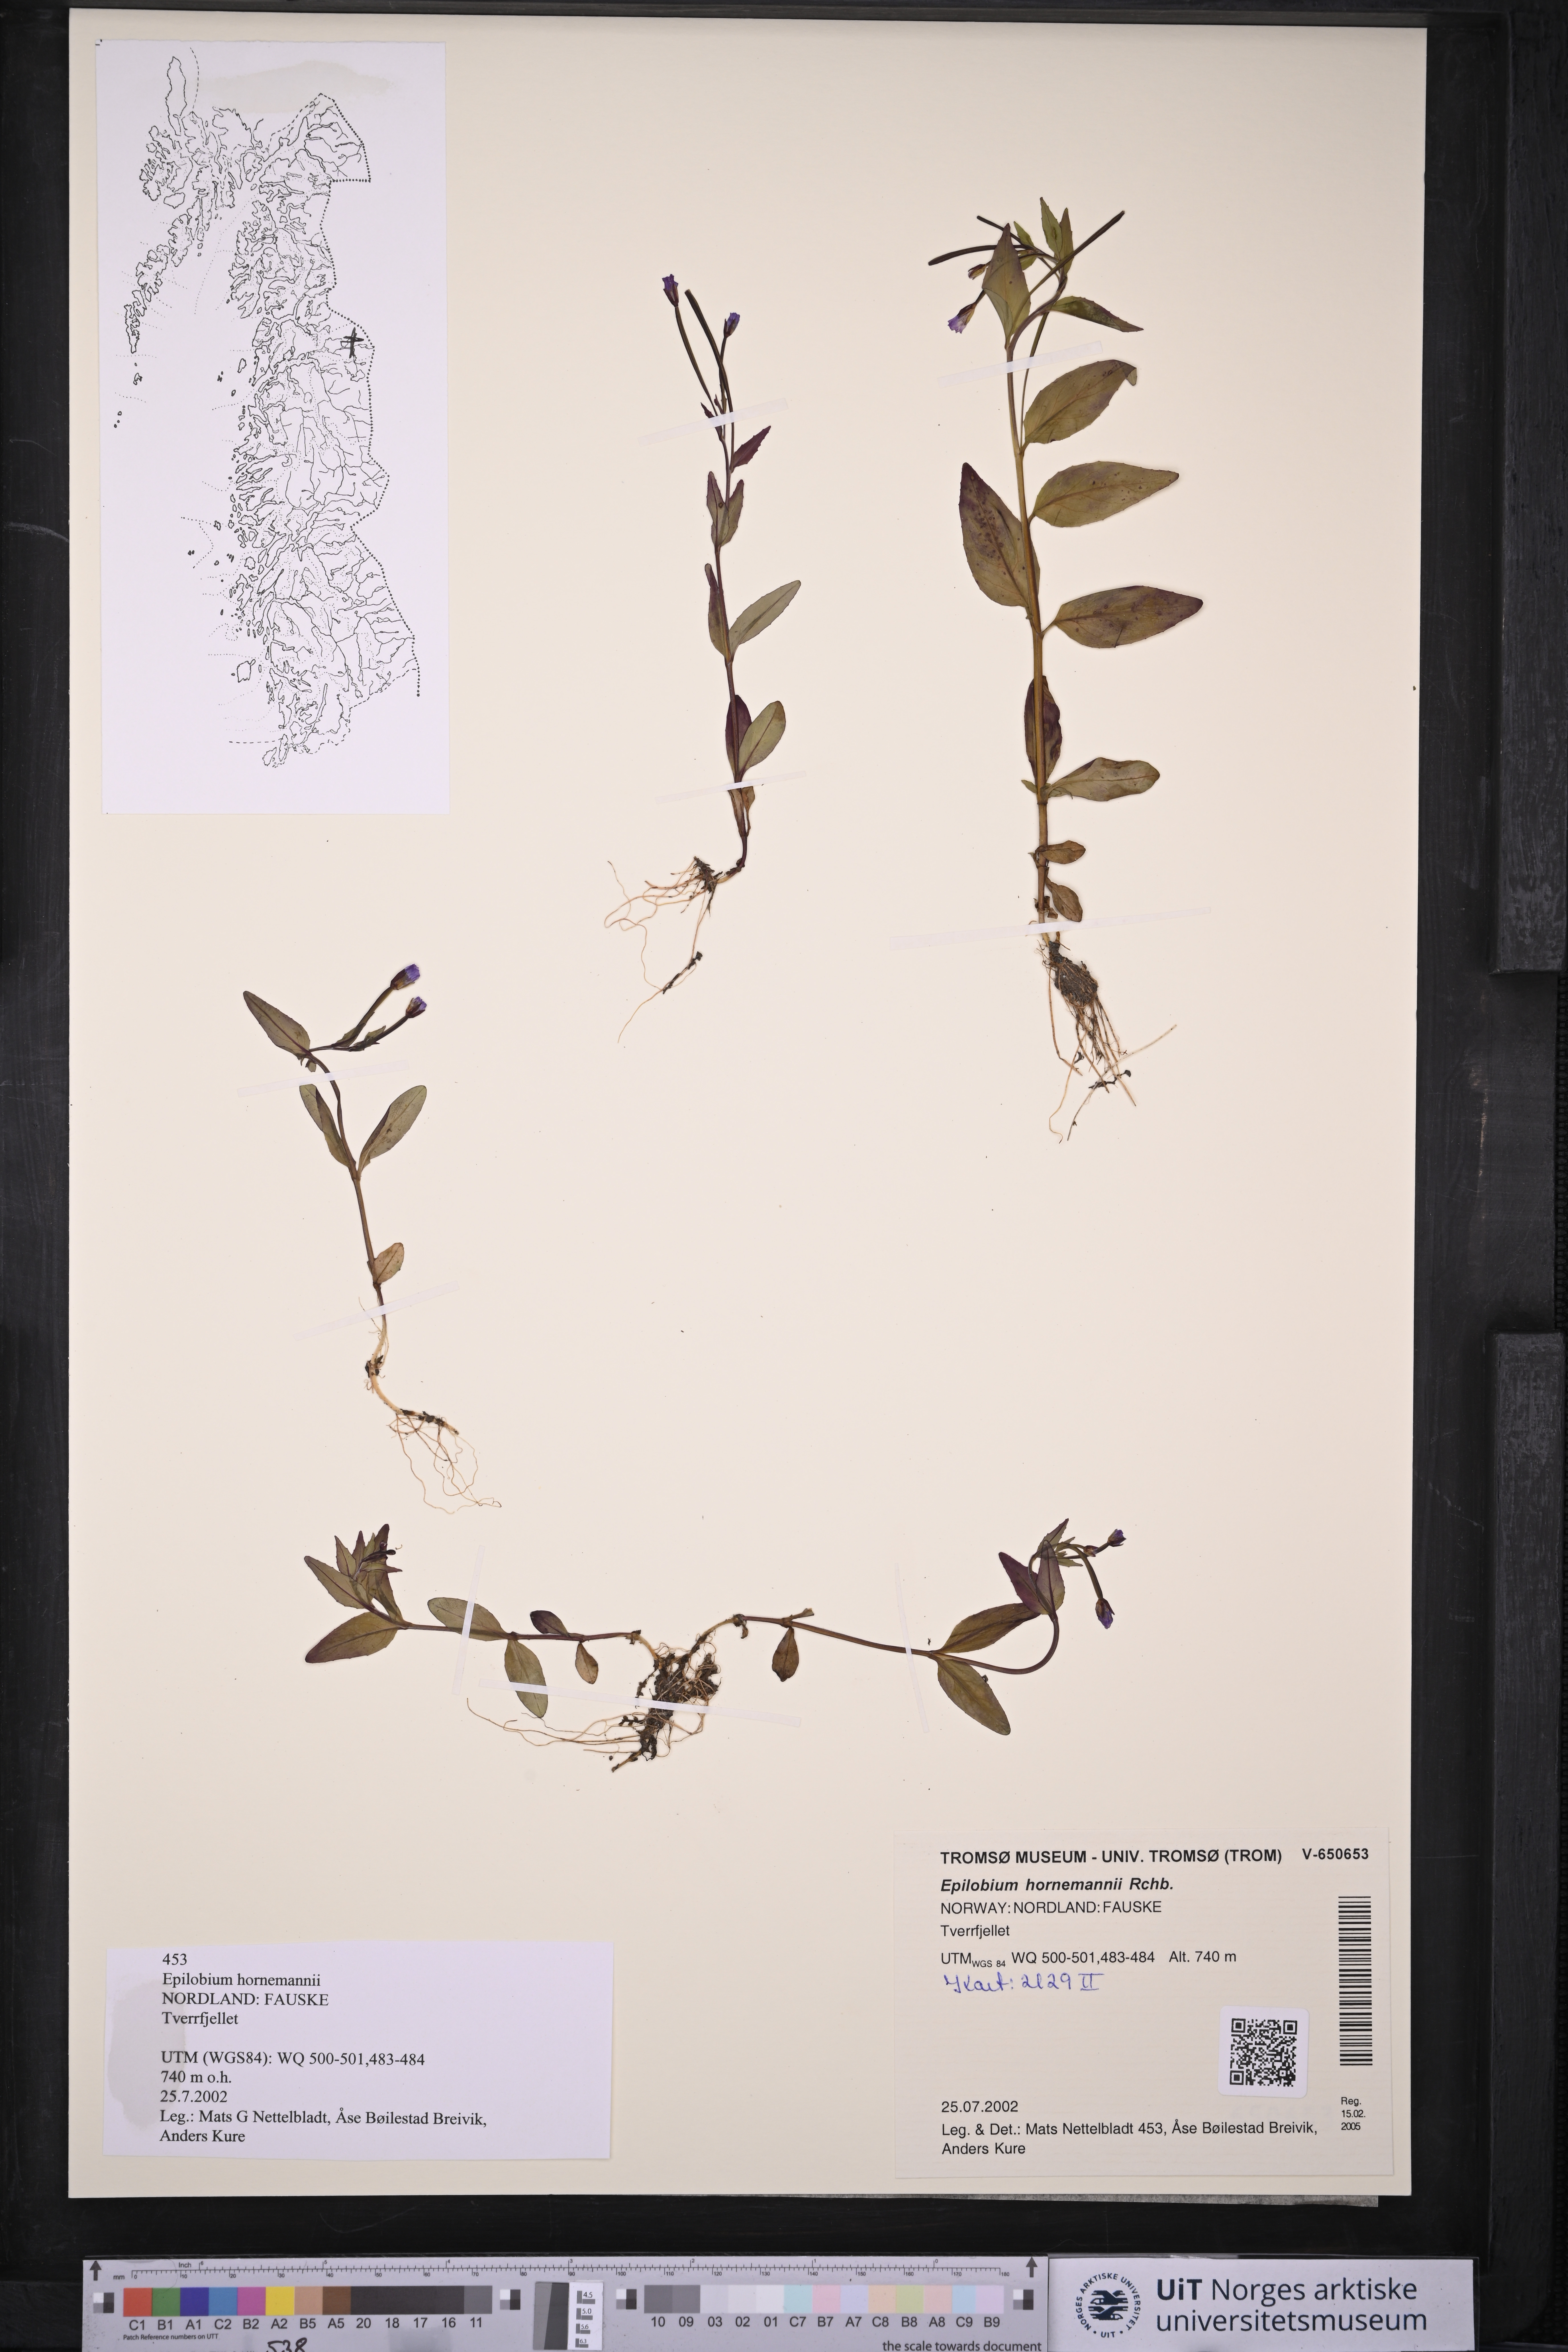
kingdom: Plantae
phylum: Tracheophyta
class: Magnoliopsida
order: Myrtales
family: Onagraceae
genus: Epilobium
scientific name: Epilobium hornemannii
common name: Hornemann's willowherb
